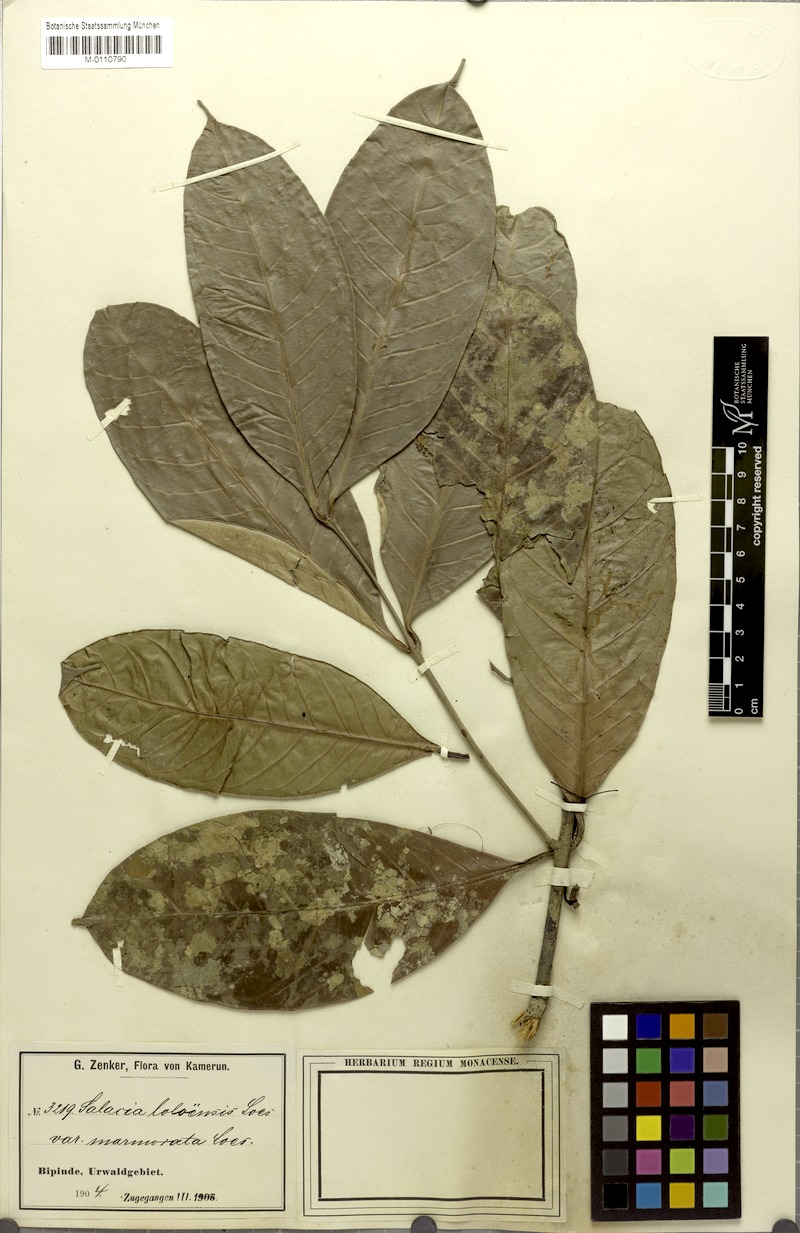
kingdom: Plantae
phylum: Tracheophyta
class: Magnoliopsida
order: Celastrales
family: Celastraceae
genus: Salacia
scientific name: Salacia loloensis
